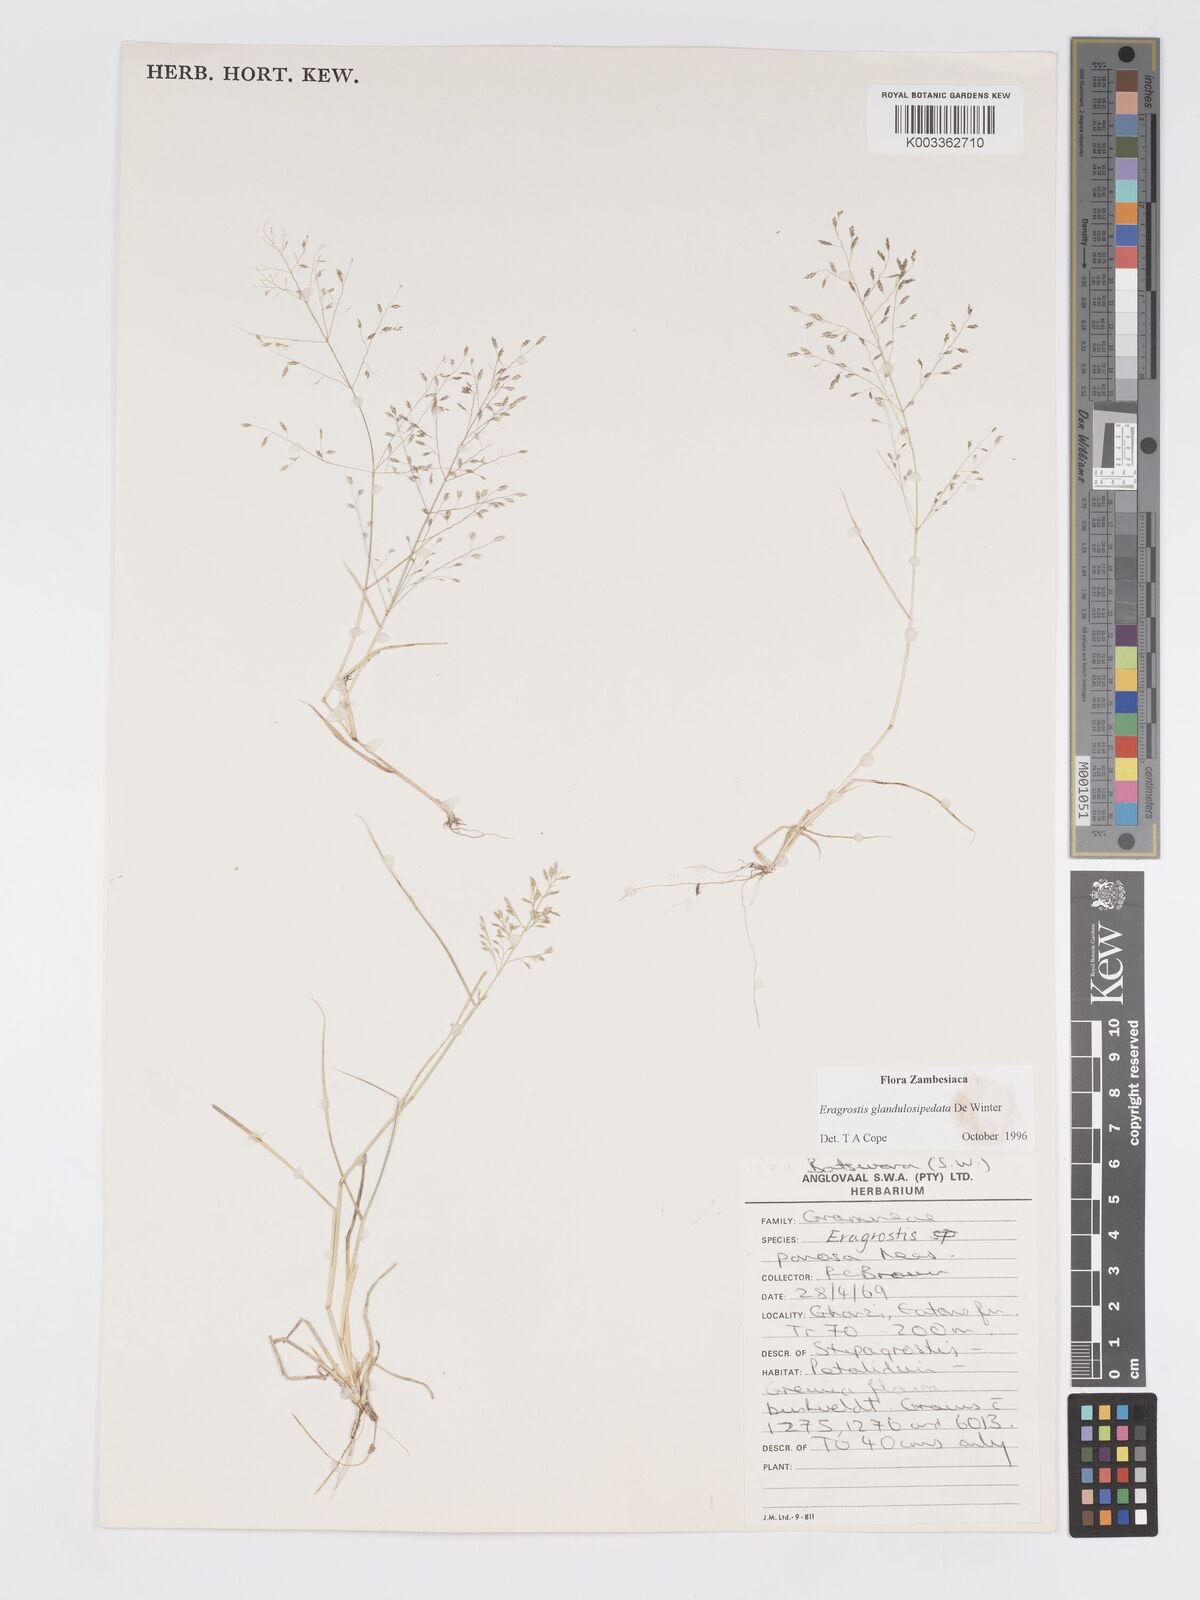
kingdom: Plantae
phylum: Tracheophyta
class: Liliopsida
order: Poales
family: Poaceae
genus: Eragrostis
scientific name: Eragrostis glandulosipedata
